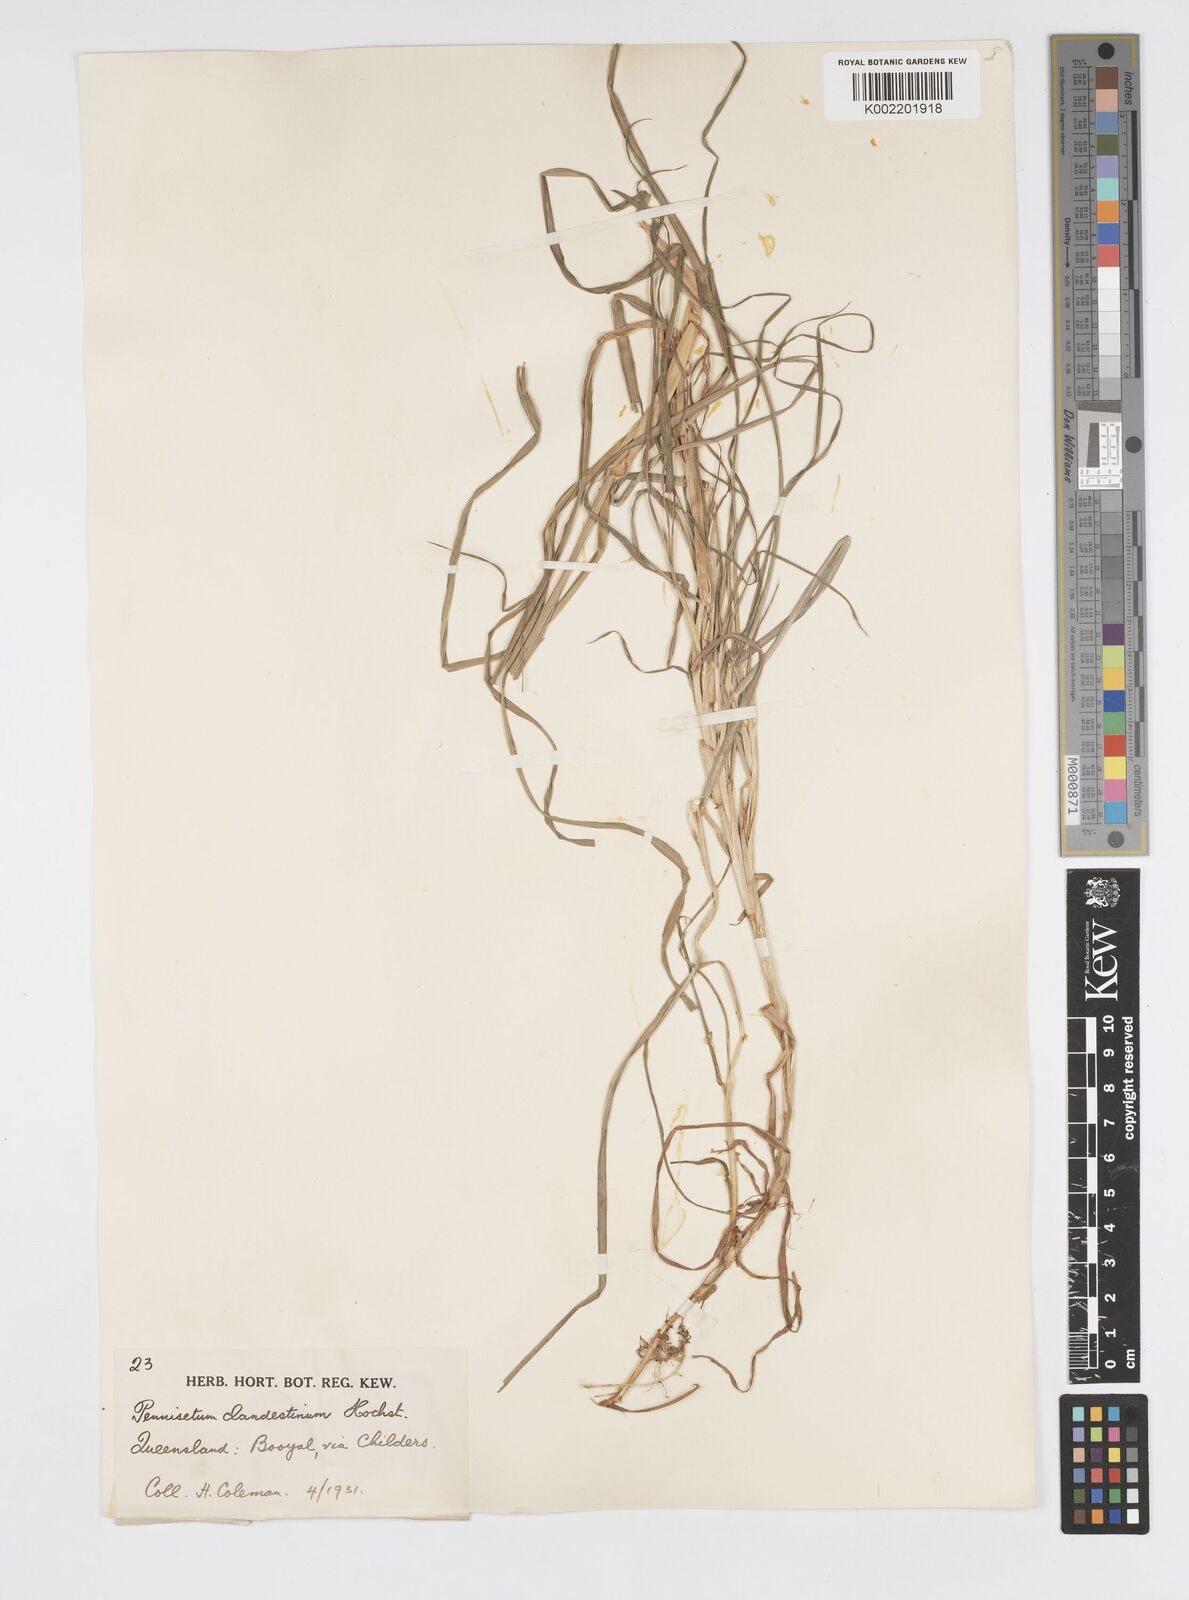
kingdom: Plantae
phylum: Tracheophyta
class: Liliopsida
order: Poales
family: Poaceae
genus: Cenchrus
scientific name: Cenchrus clandestinus
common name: Kikuyugrass
